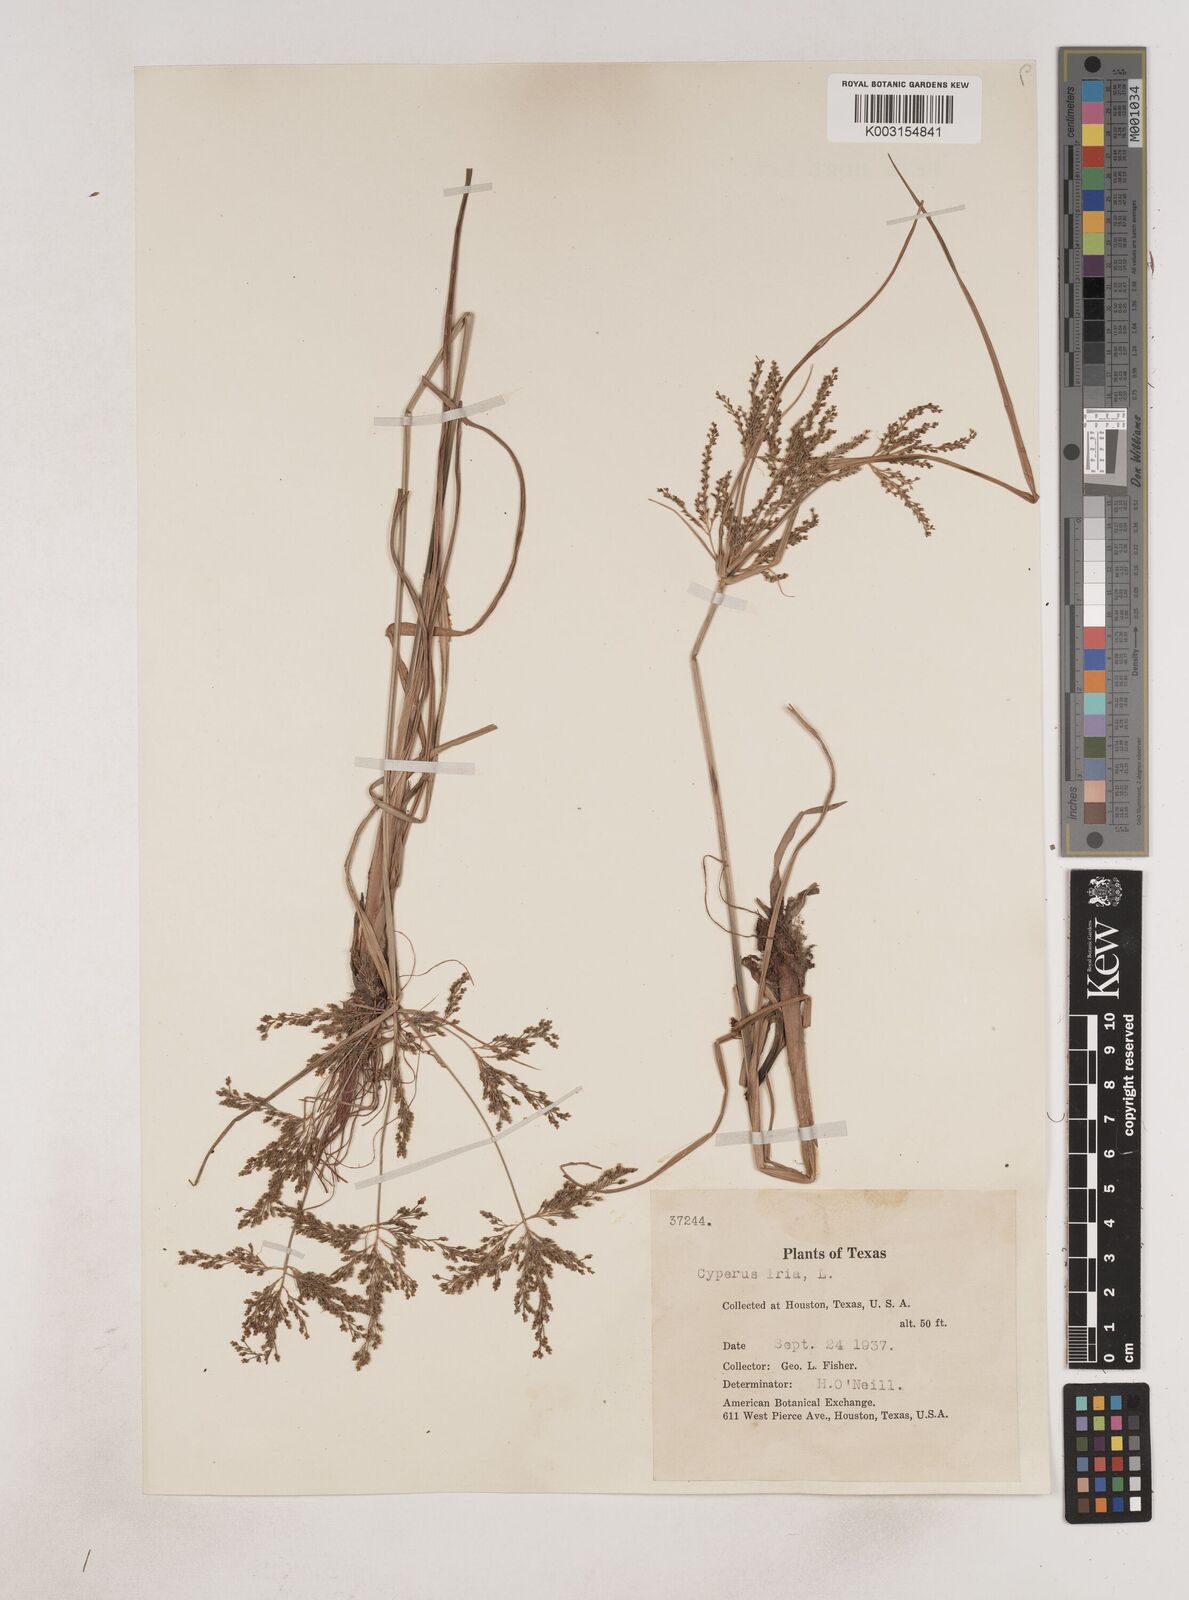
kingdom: Plantae
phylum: Tracheophyta
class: Liliopsida
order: Poales
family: Cyperaceae
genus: Cyperus
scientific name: Cyperus iria
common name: Ricefield flatsedge
